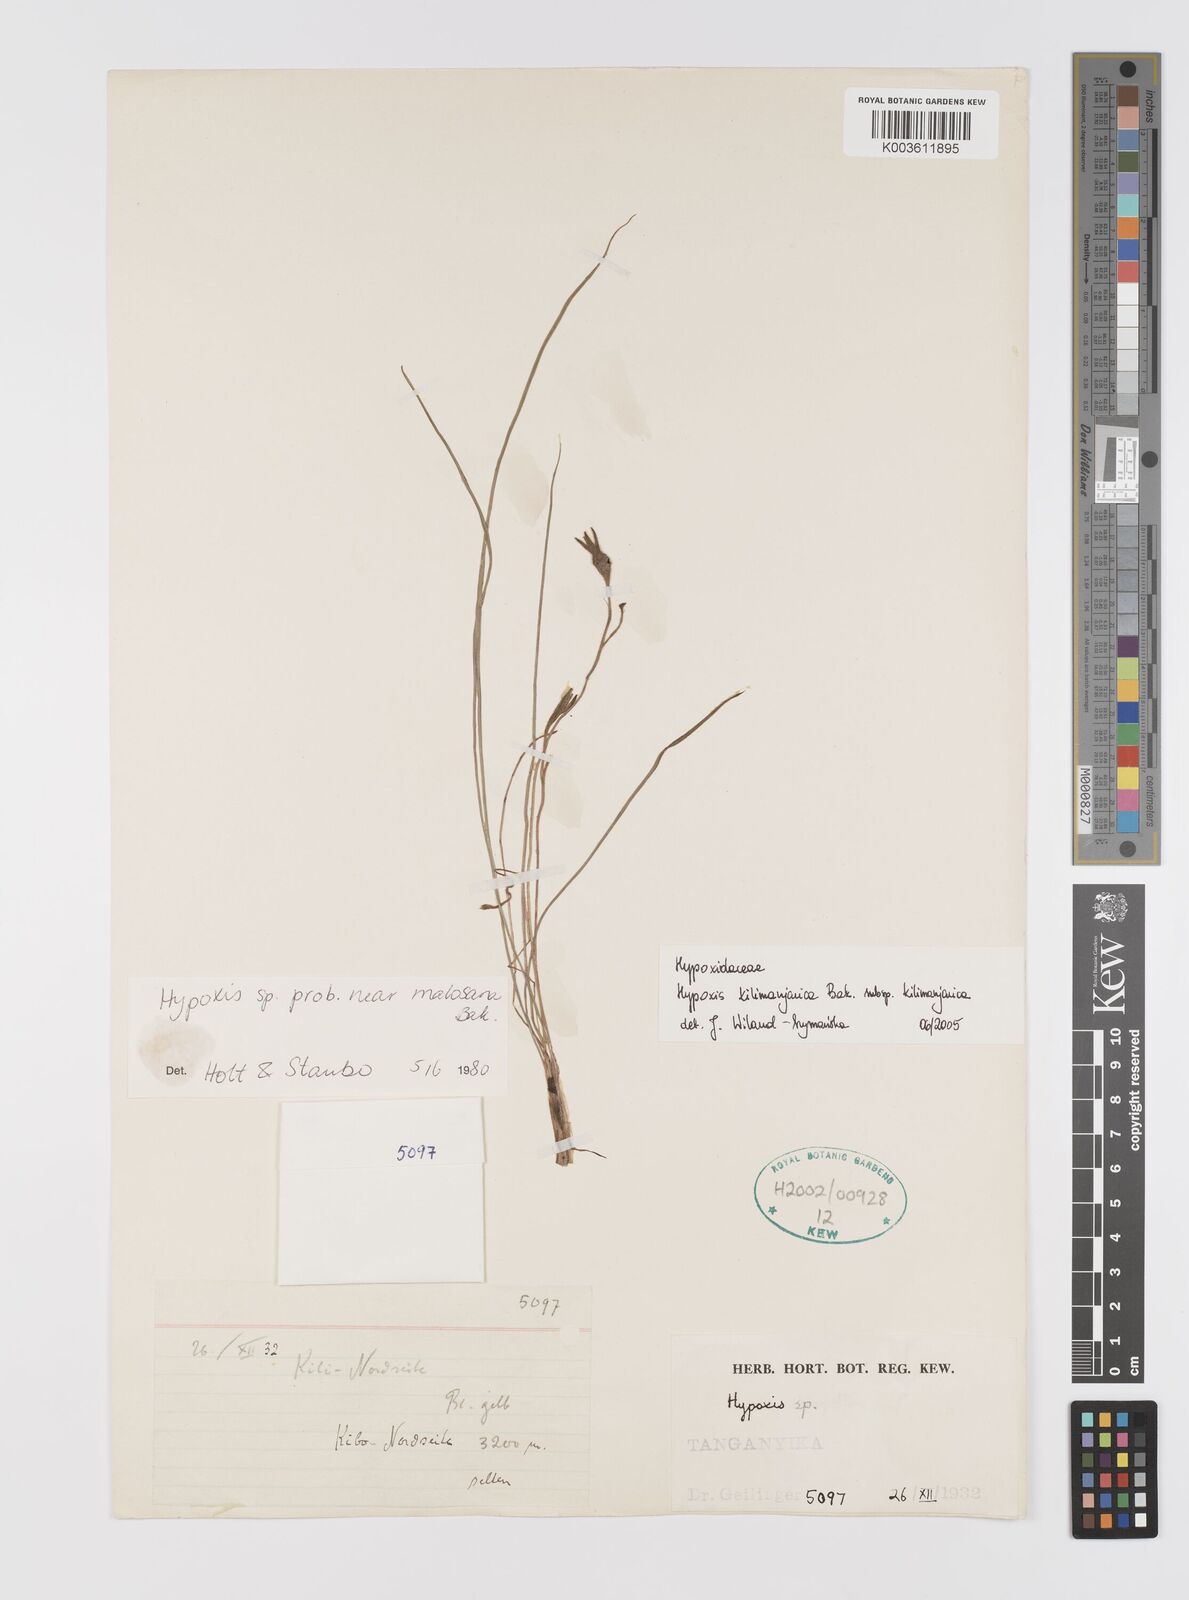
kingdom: Plantae
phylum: Tracheophyta
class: Liliopsida
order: Asparagales
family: Hypoxidaceae
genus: Hypoxis
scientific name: Hypoxis kilimanjarica
